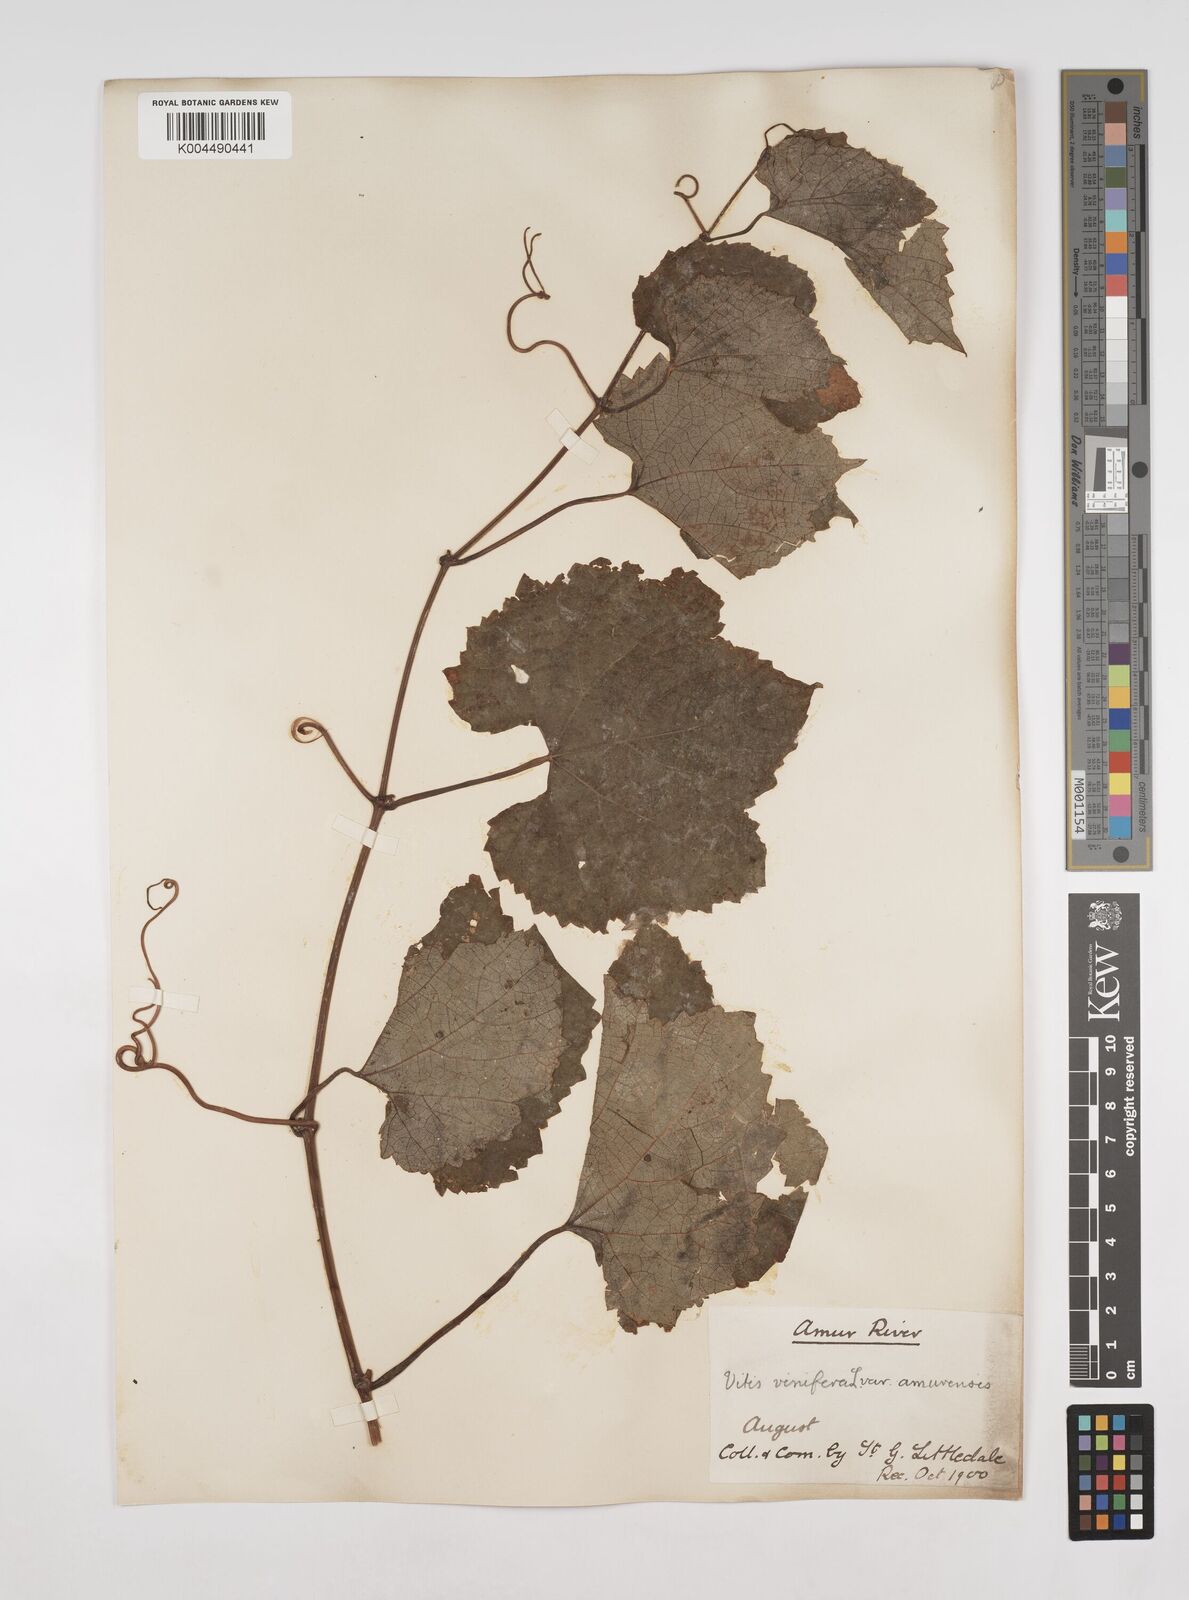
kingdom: Plantae
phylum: Tracheophyta
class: Magnoliopsida
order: Vitales
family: Vitaceae
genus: Vitis
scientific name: Vitis vinifera
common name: Grape-vine
